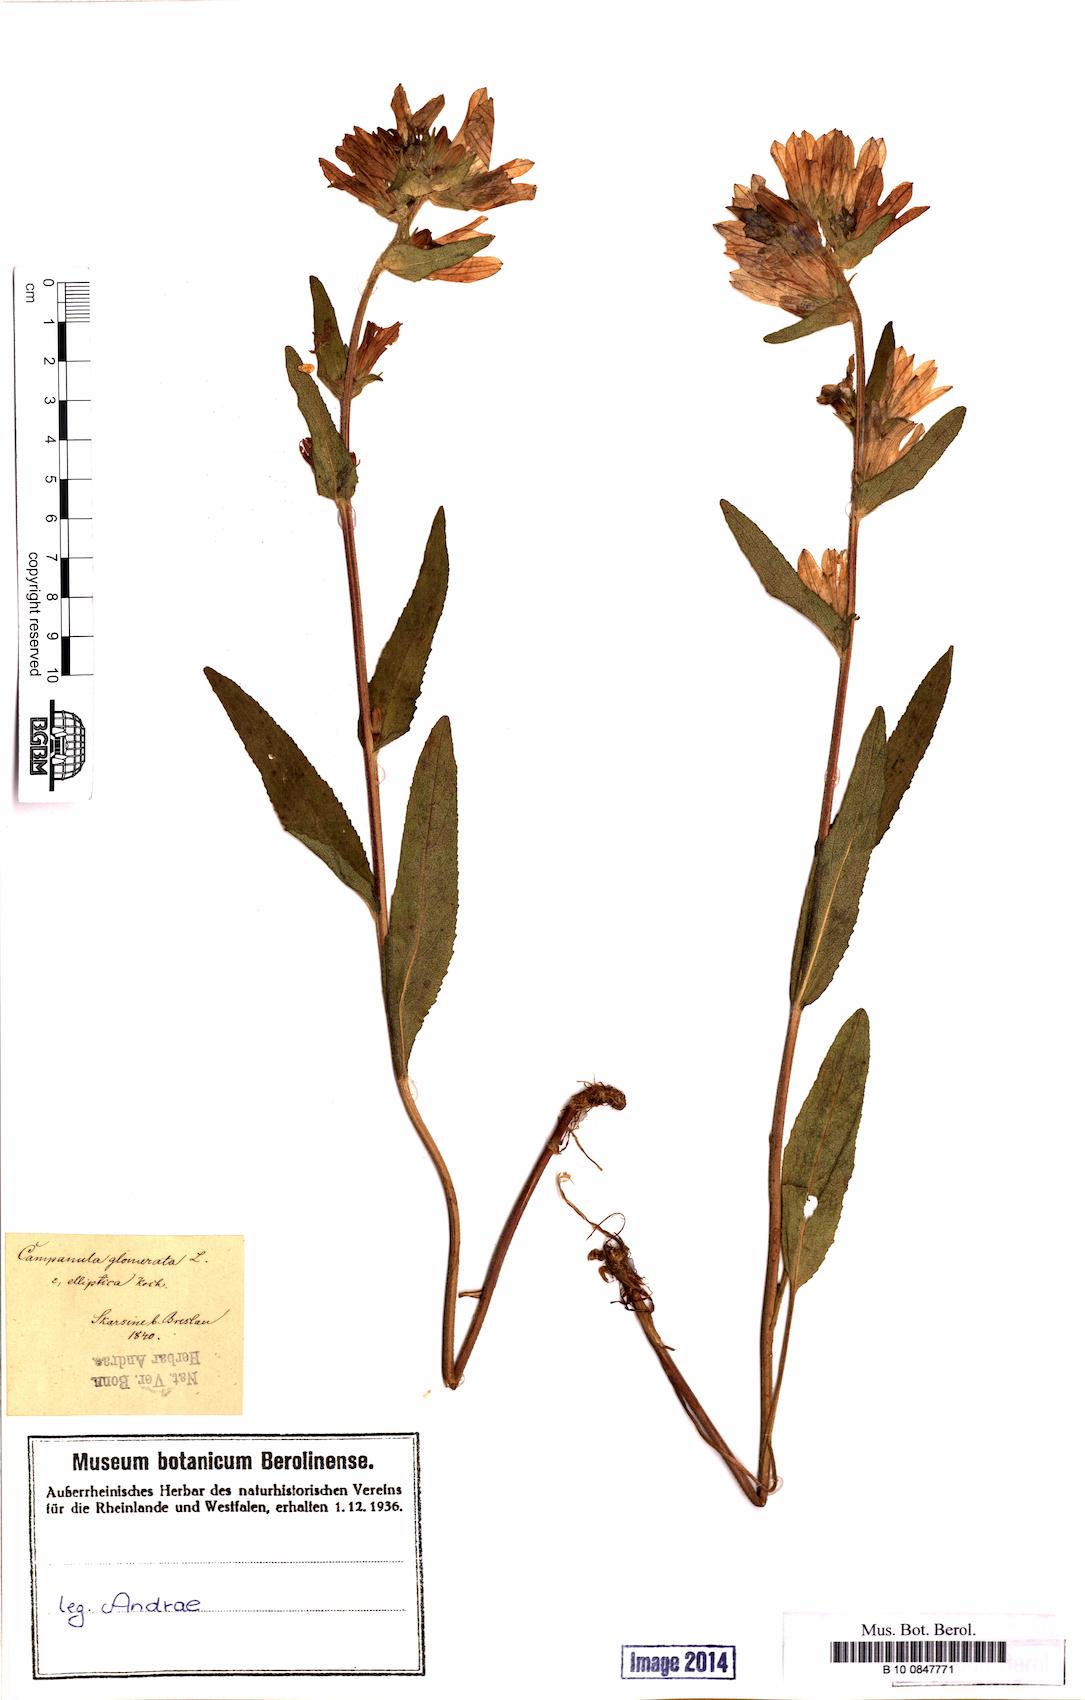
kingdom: Plantae
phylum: Tracheophyta
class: Magnoliopsida
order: Asterales
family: Campanulaceae
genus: Campanula
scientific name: Campanula glomerata
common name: Clustered bellflower
